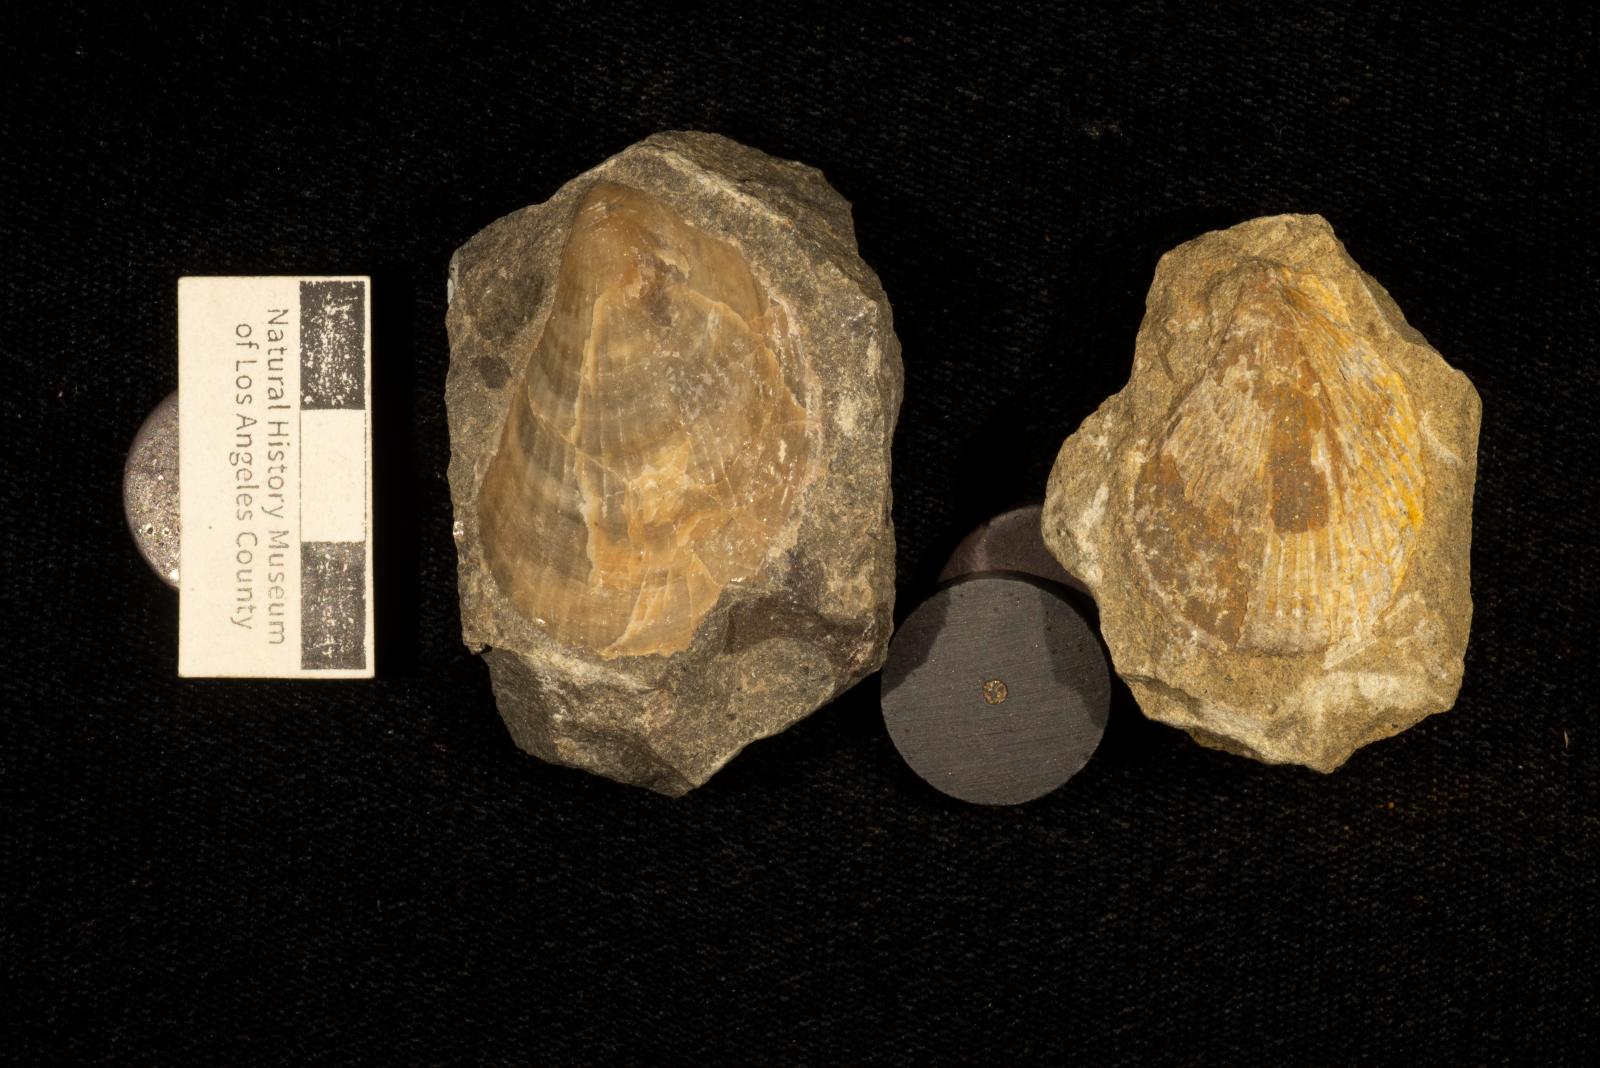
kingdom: Animalia
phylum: Mollusca
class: Bivalvia
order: Limida
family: Limidae
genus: Acesta
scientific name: Acesta Lima beta
